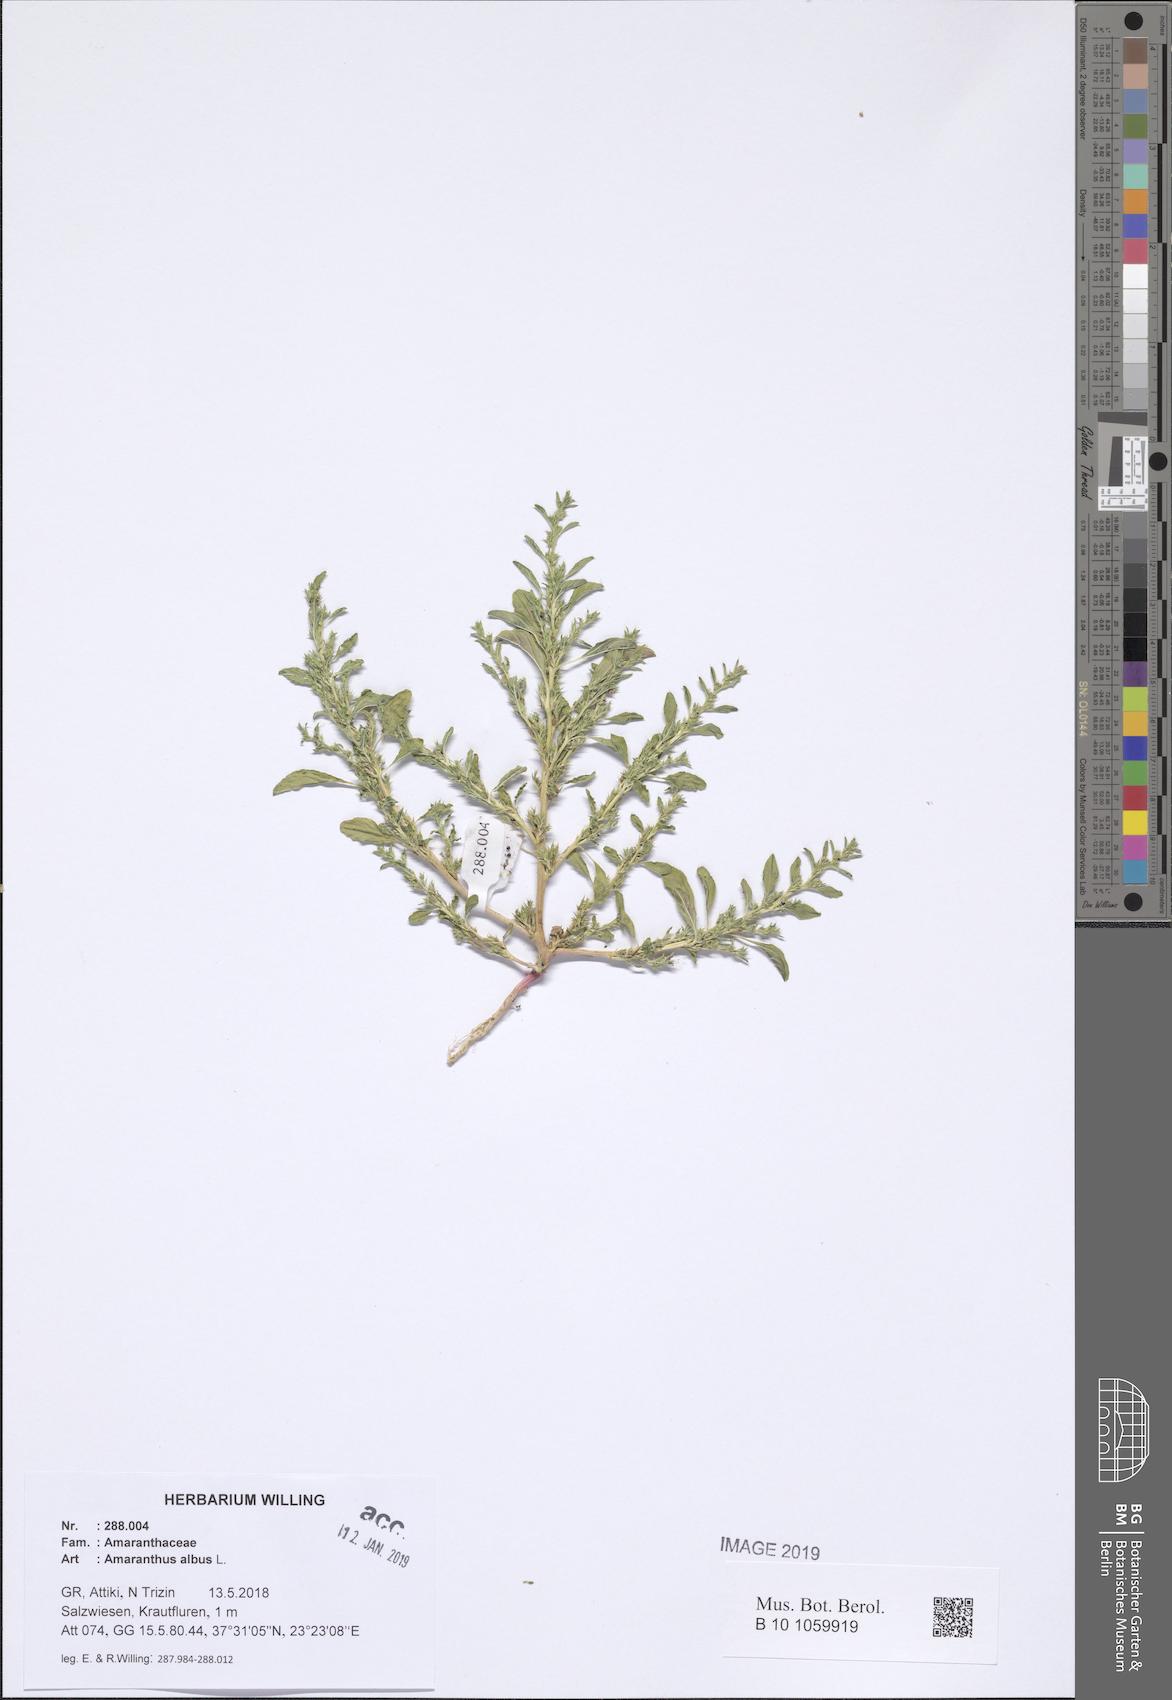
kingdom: Plantae
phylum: Tracheophyta
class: Magnoliopsida
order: Caryophyllales
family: Amaranthaceae
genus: Amaranthus
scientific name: Amaranthus albus
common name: White pigweed
